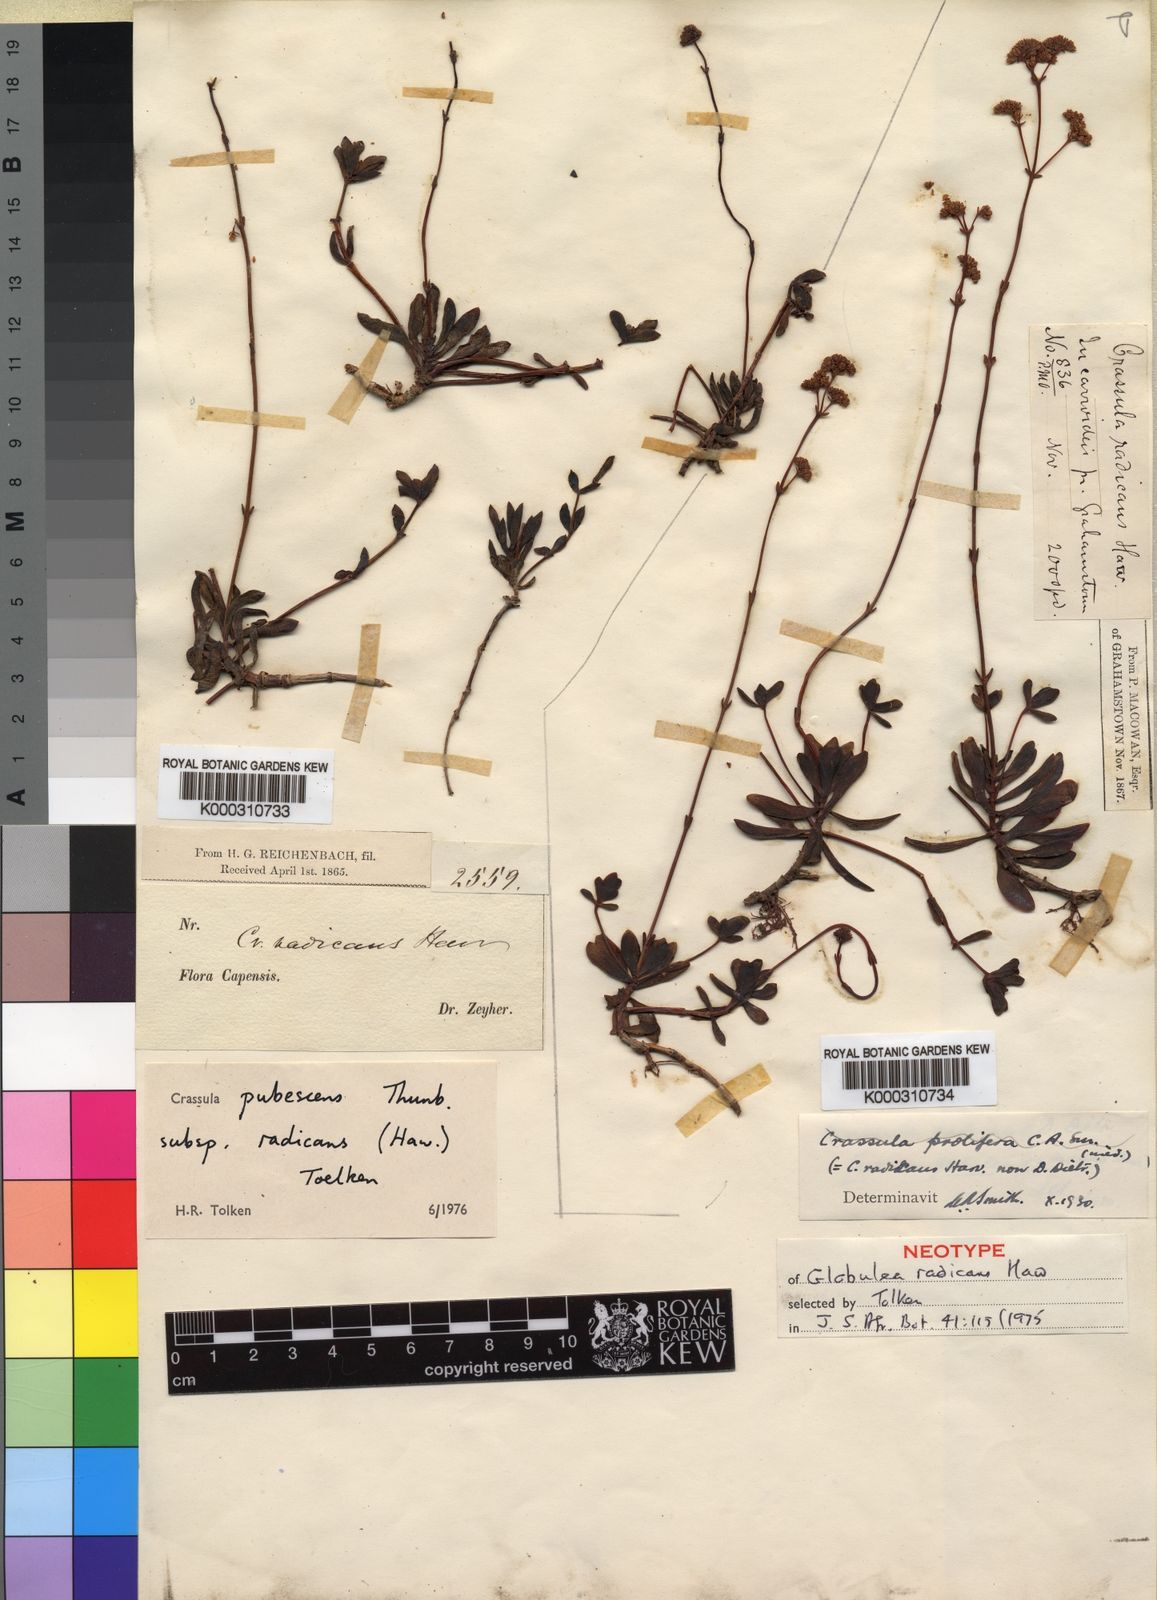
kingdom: Plantae
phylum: Tracheophyta
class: Magnoliopsida
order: Saxifragales
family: Crassulaceae
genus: Crassula
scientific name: Crassula pubescens
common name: Jersey pigmyweed
